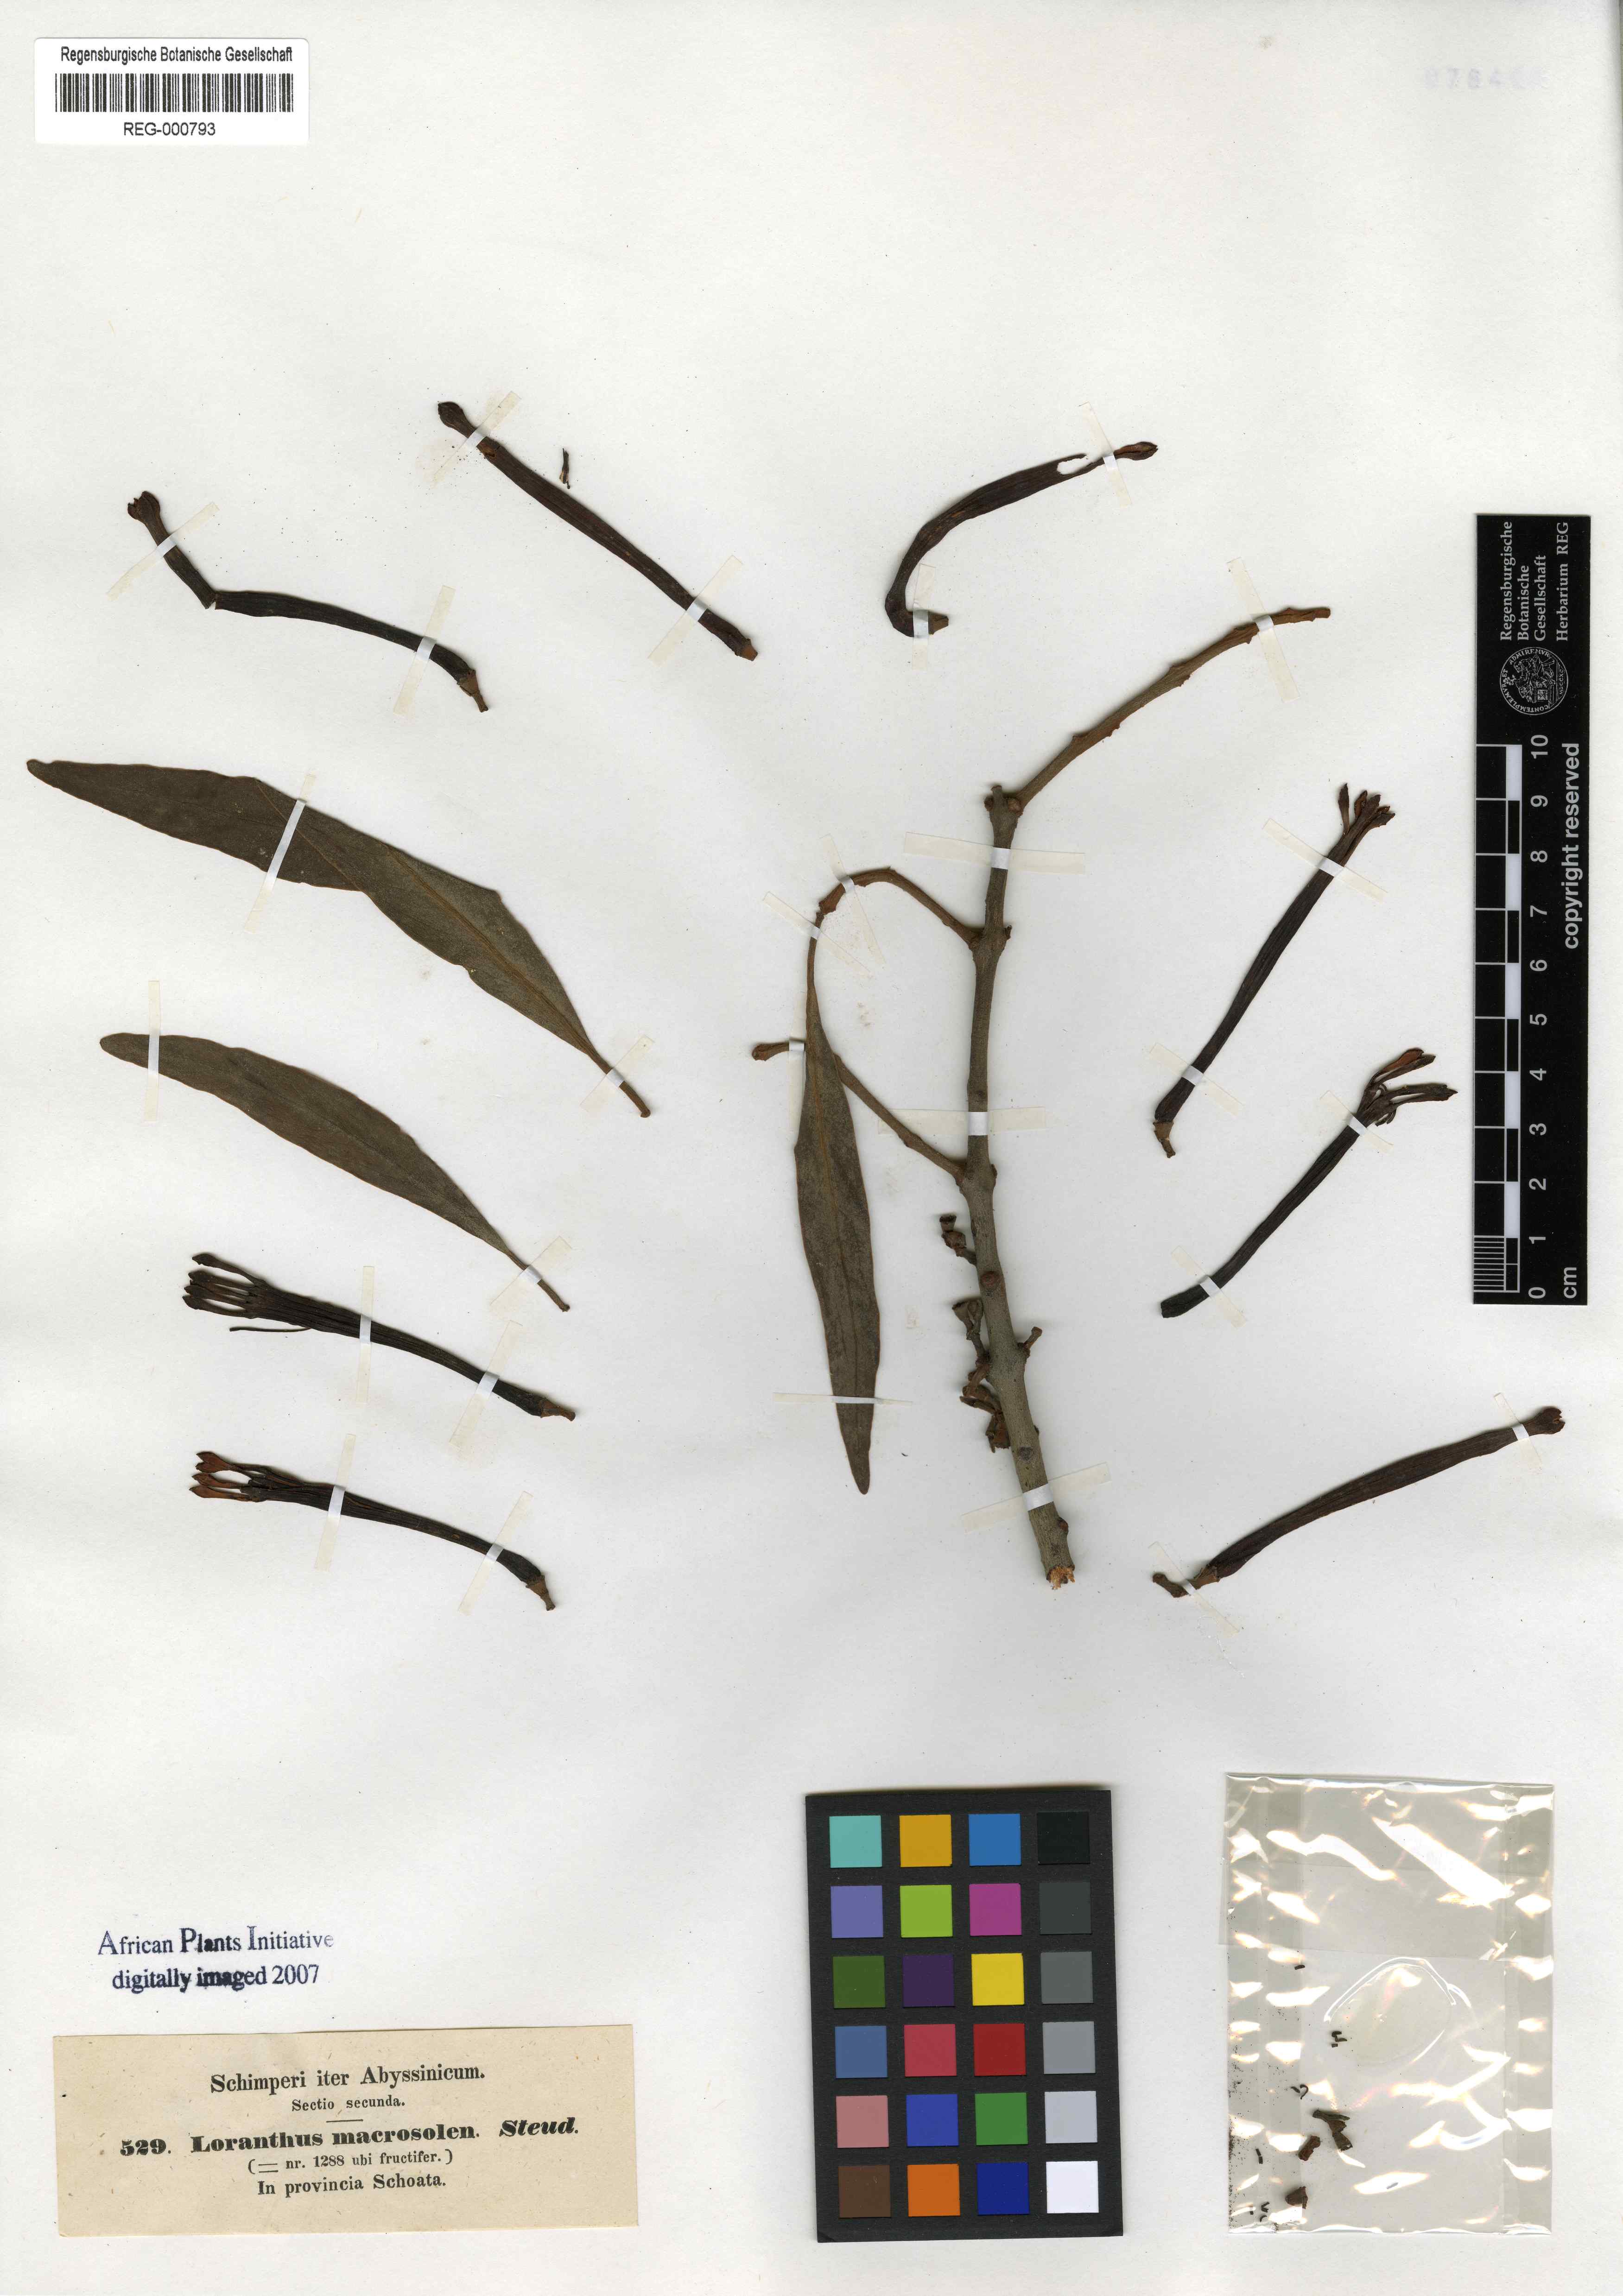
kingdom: Plantae
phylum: Tracheophyta
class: Magnoliopsida
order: Santalales
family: Loranthaceae
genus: Phragmanthera
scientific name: Phragmanthera macrosolen
